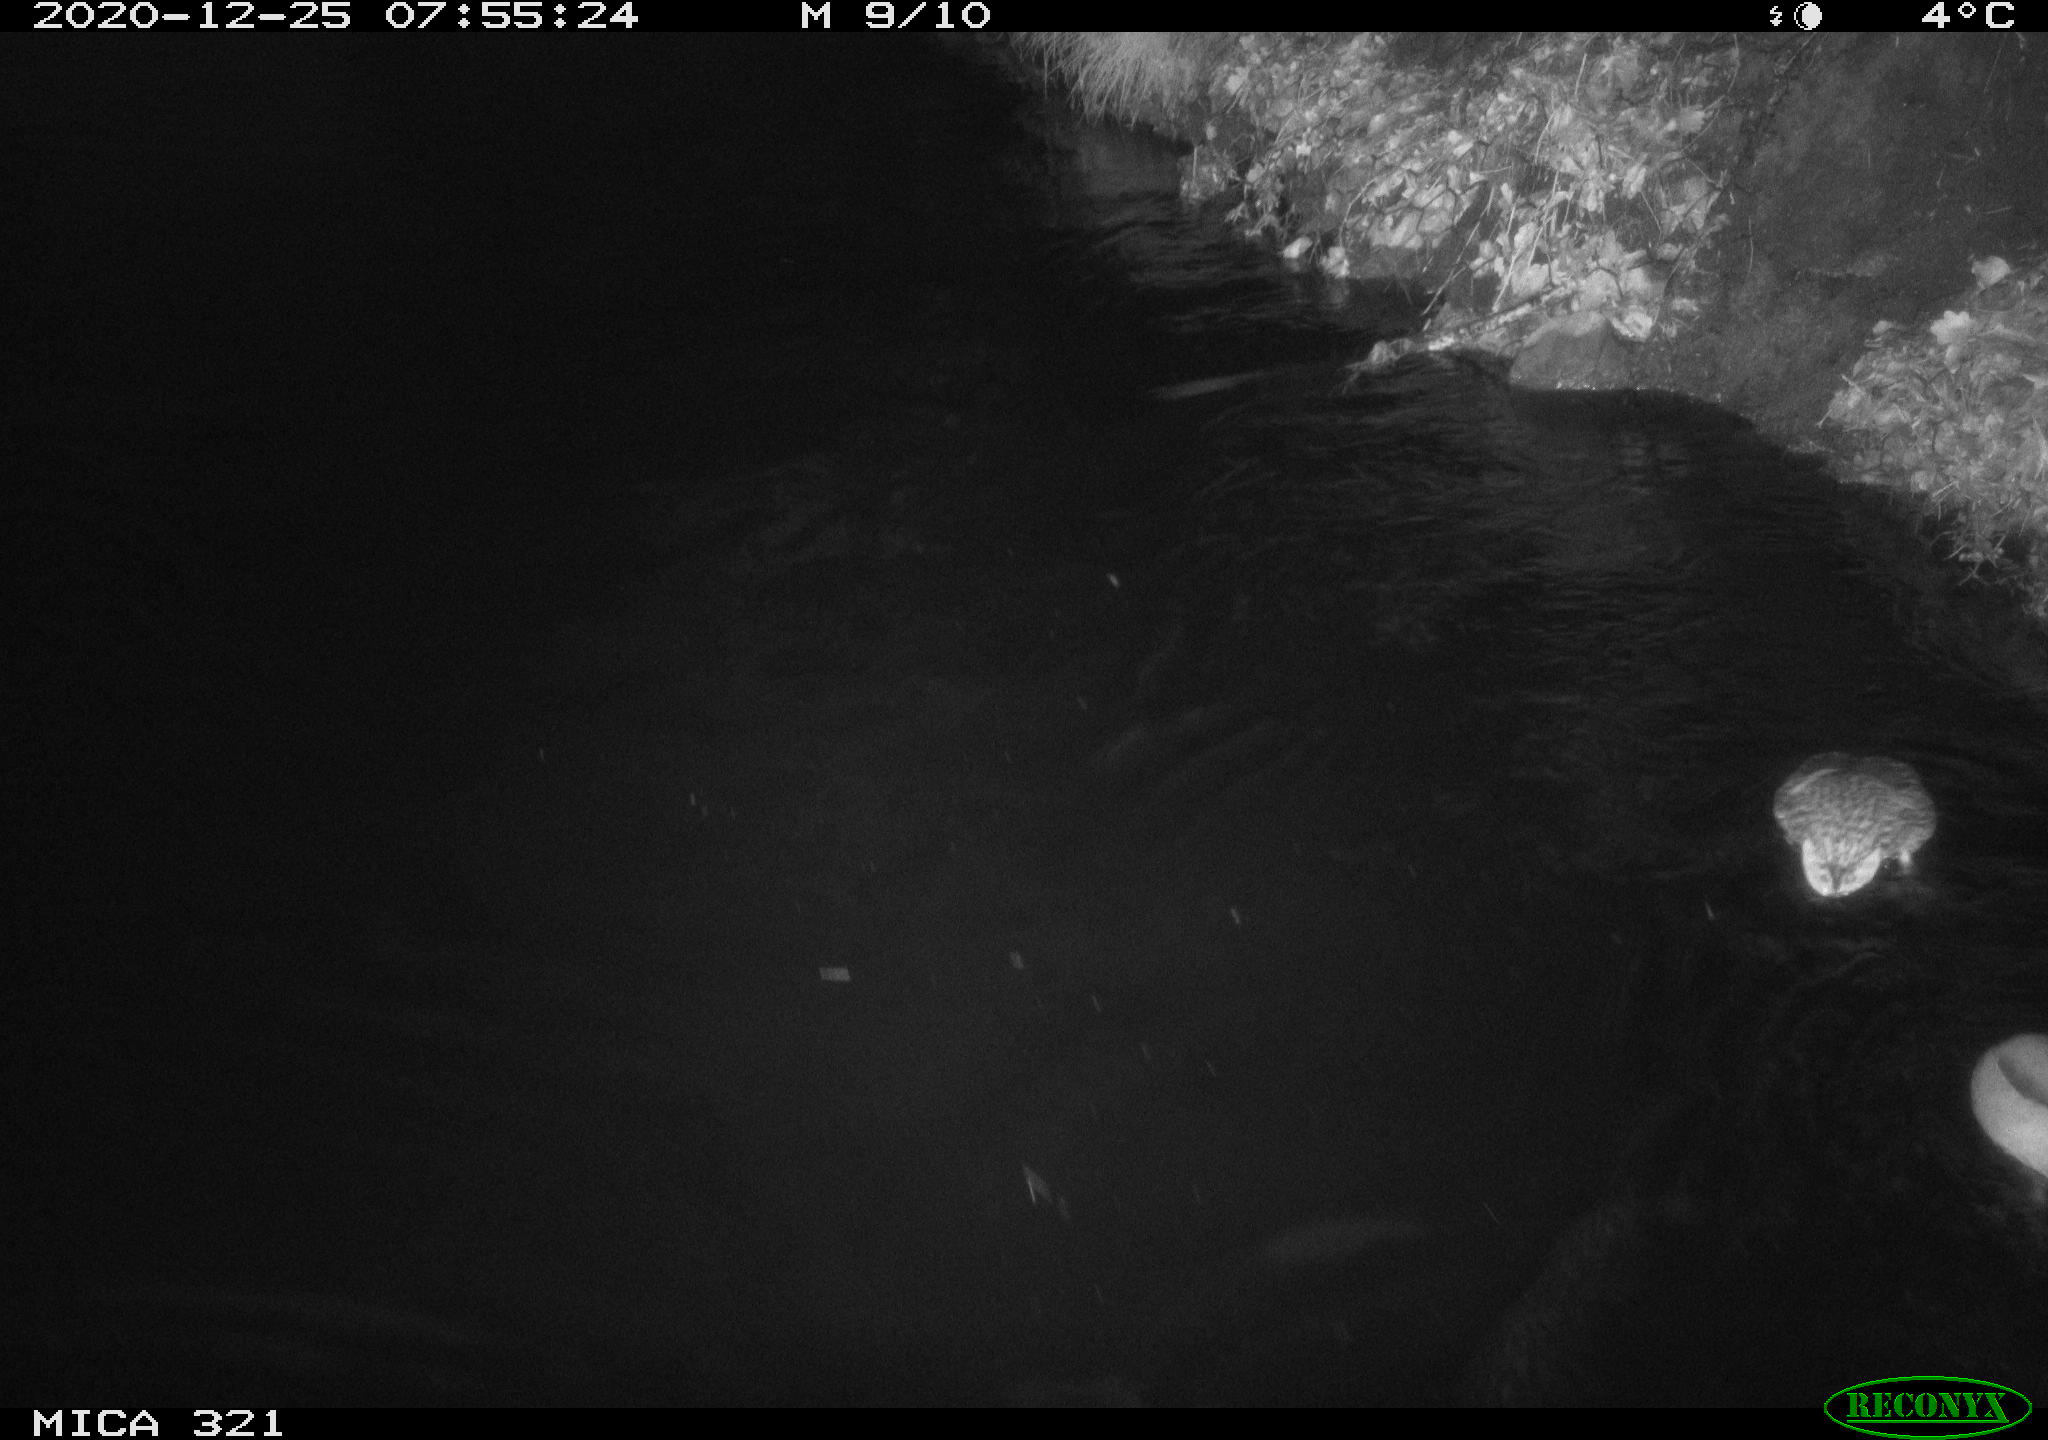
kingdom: Animalia
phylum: Chordata
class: Aves
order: Anseriformes
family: Anatidae
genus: Anas
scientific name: Anas platyrhynchos
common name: Mallard
